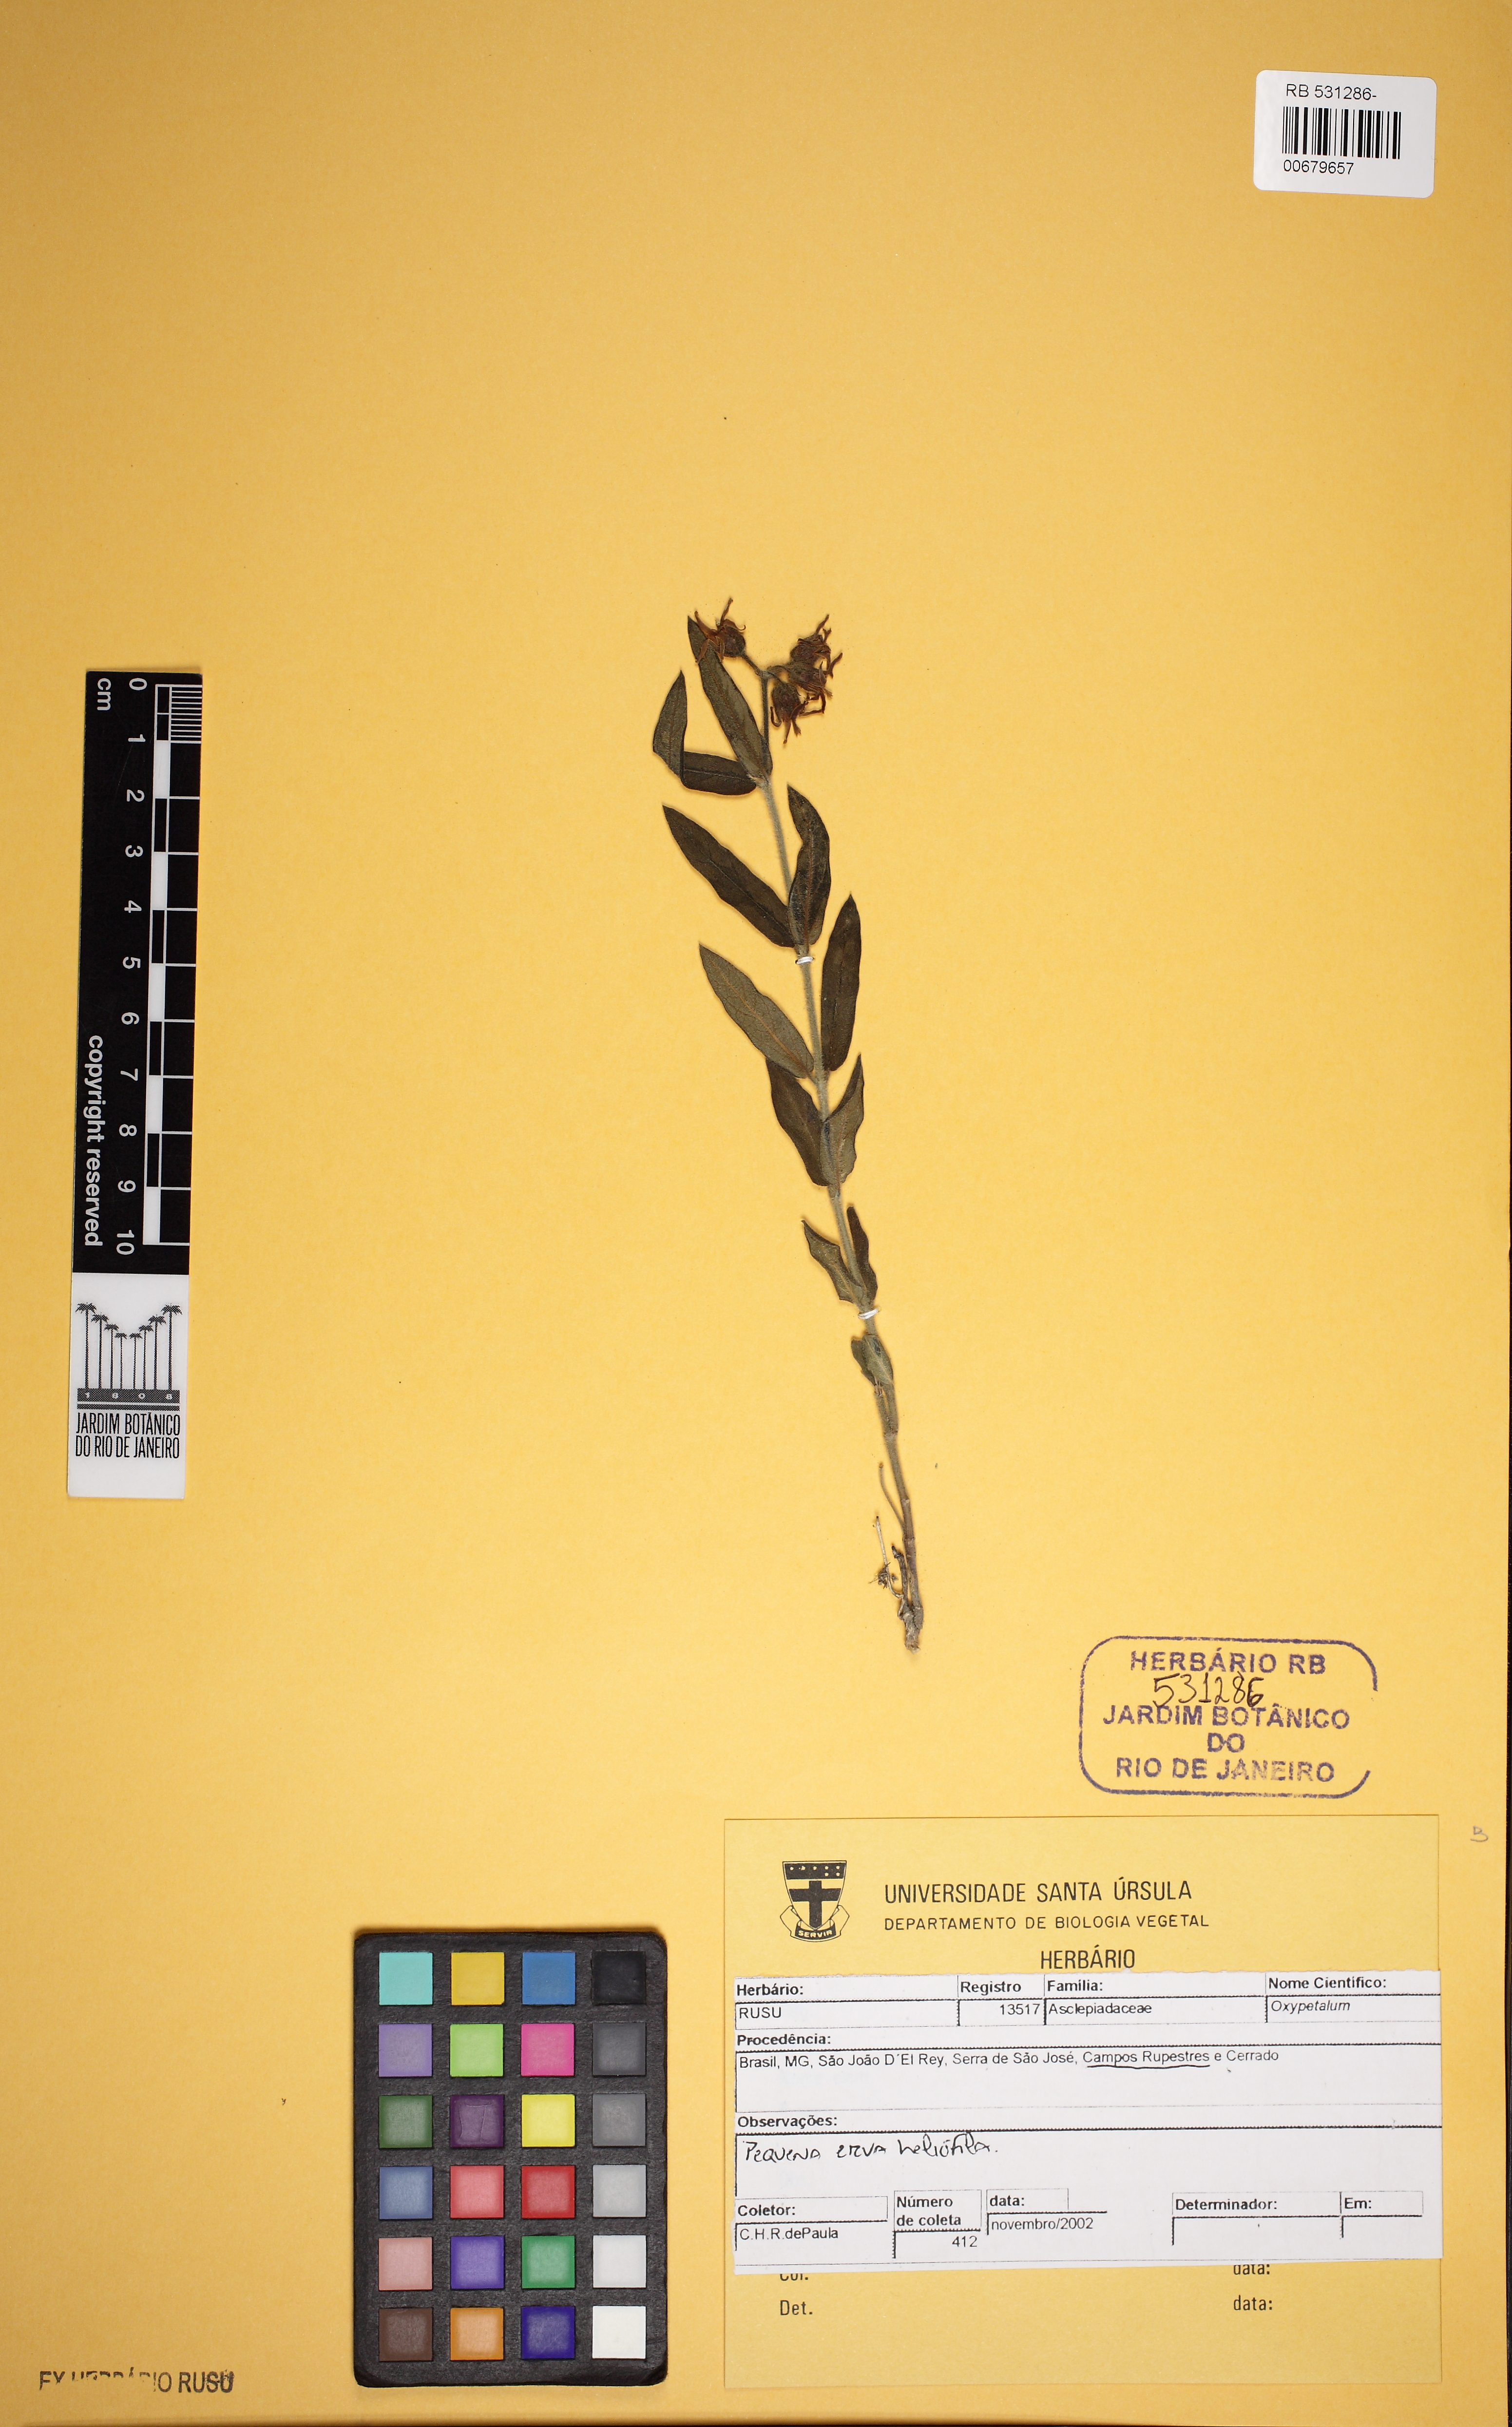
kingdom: Plantae
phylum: Tracheophyta
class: Magnoliopsida
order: Gentianales
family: Apocynaceae
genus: Oxypetalum
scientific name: Oxypetalum
